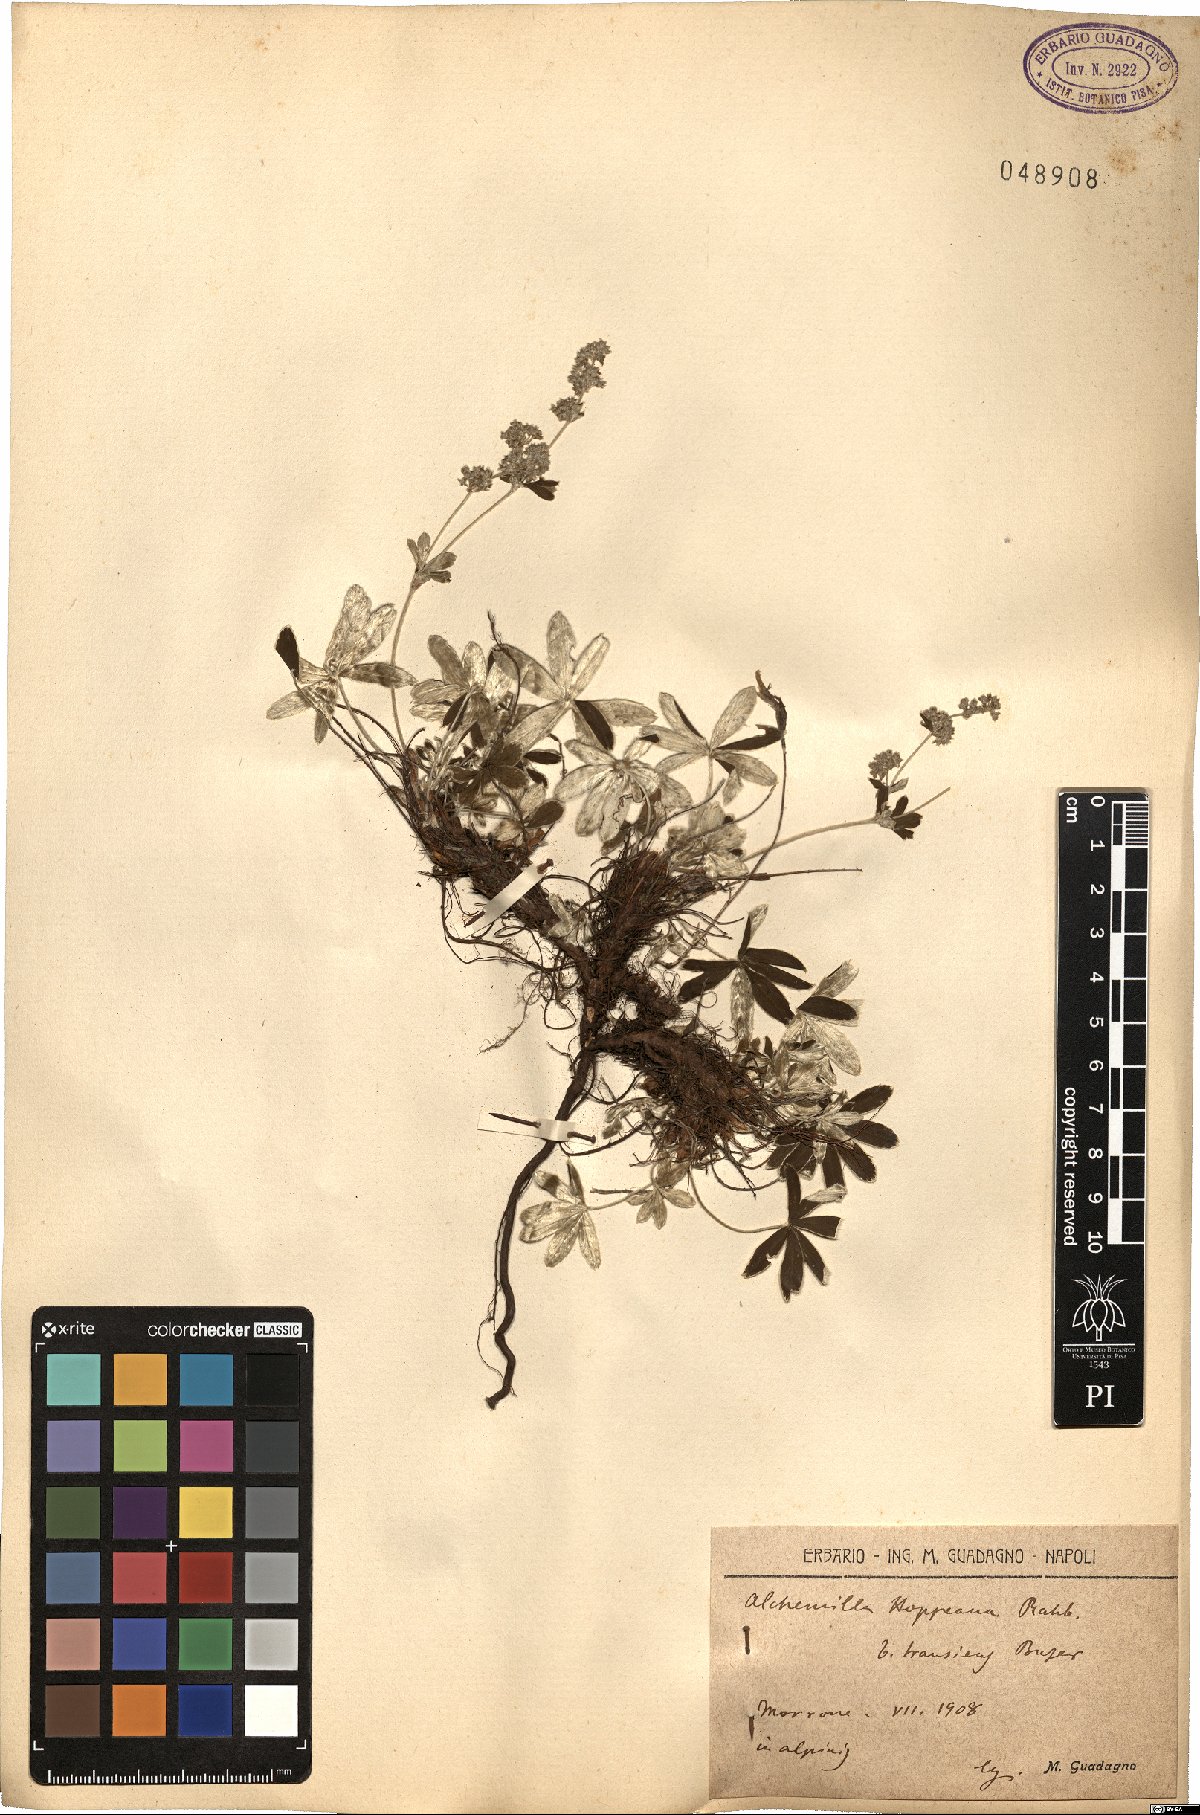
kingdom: Plantae
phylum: Tracheophyta
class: Magnoliopsida
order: Rosales
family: Rosaceae
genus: Alchemilla
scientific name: Alchemilla nitida
